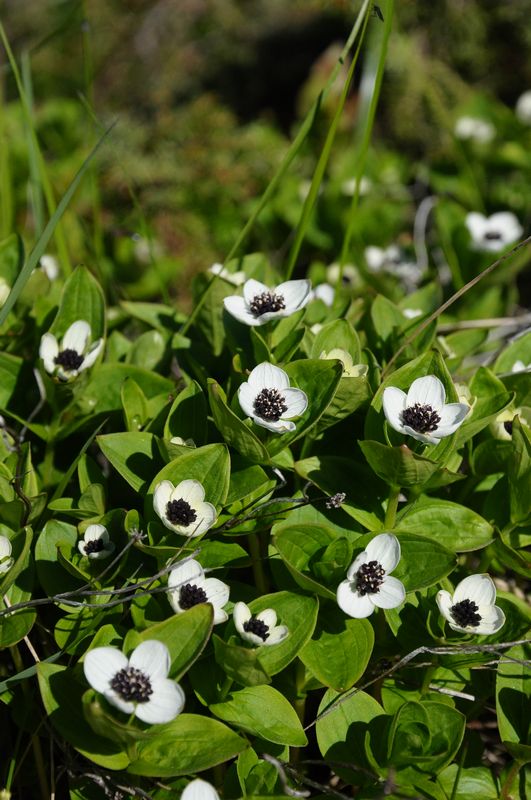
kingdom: Plantae
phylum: Tracheophyta
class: Magnoliopsida
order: Cornales
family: Cornaceae
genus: Cornus
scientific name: Cornus suecica
